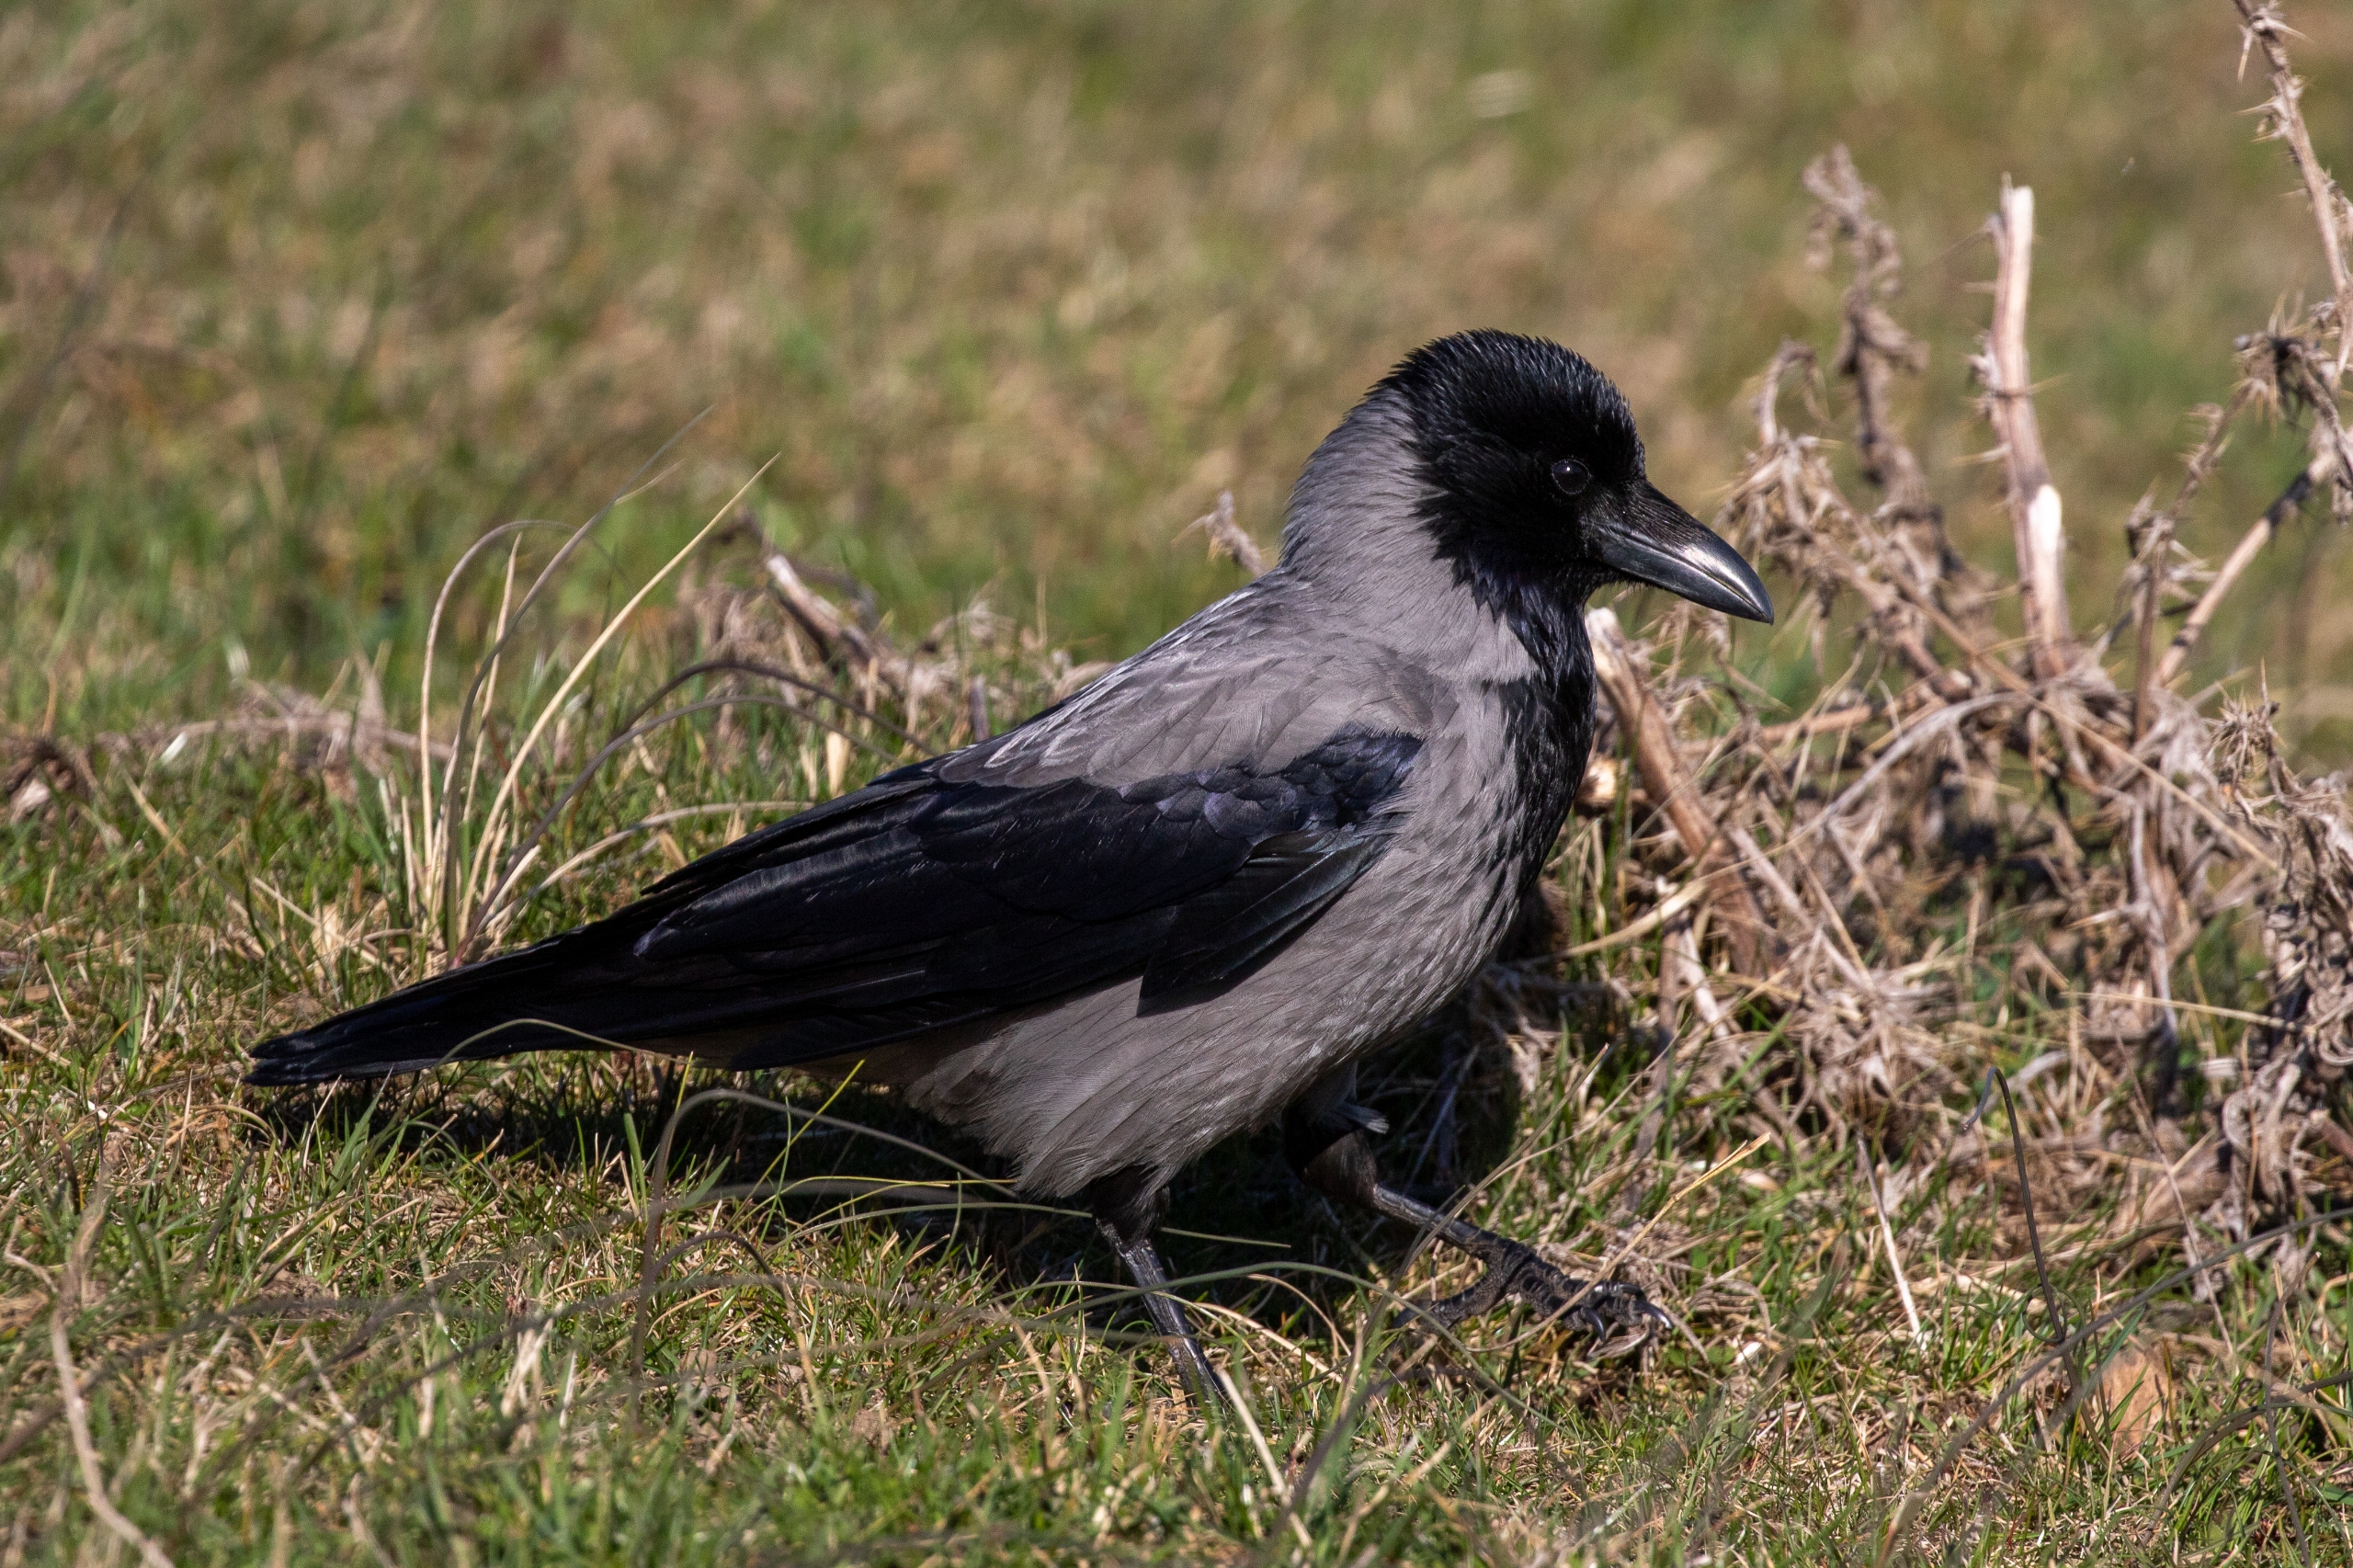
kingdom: Animalia
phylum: Chordata
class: Aves
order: Passeriformes
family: Corvidae
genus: Corvus
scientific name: Corvus cornix
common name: Gråkrage
